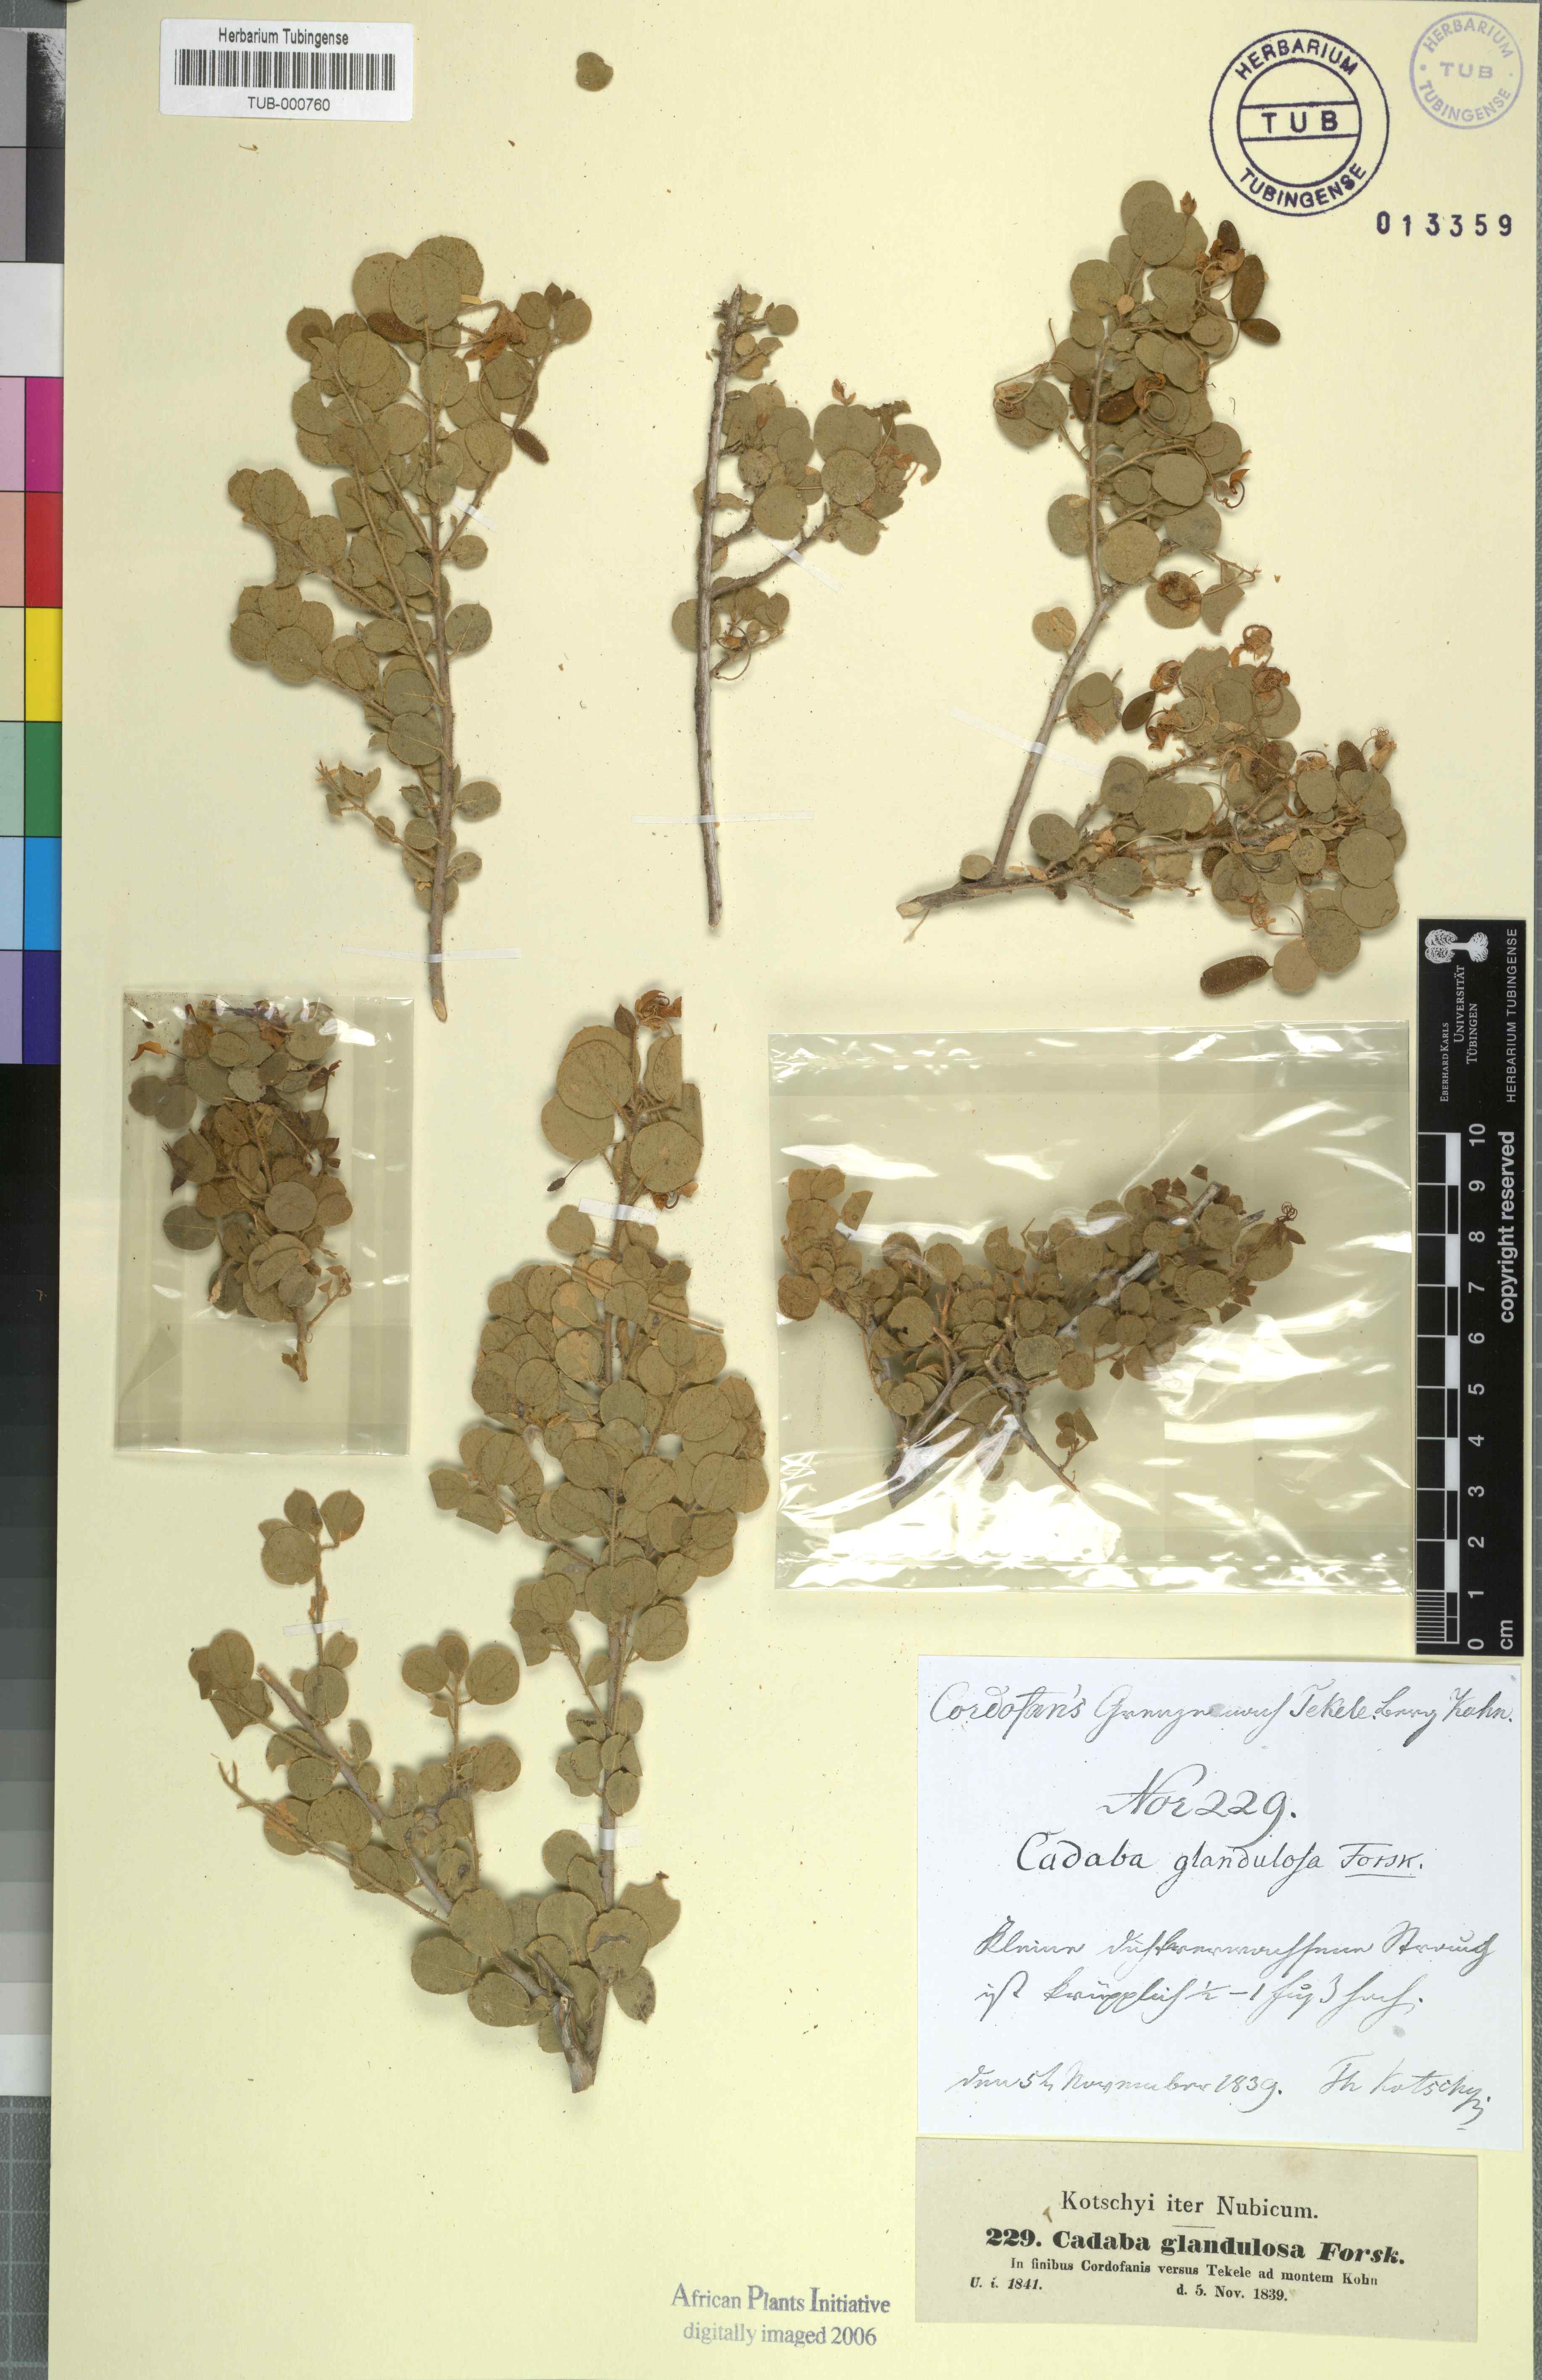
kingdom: Plantae
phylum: Tracheophyta
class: Magnoliopsida
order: Brassicales
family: Capparaceae
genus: Cadaba
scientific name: Cadaba glandulosa
